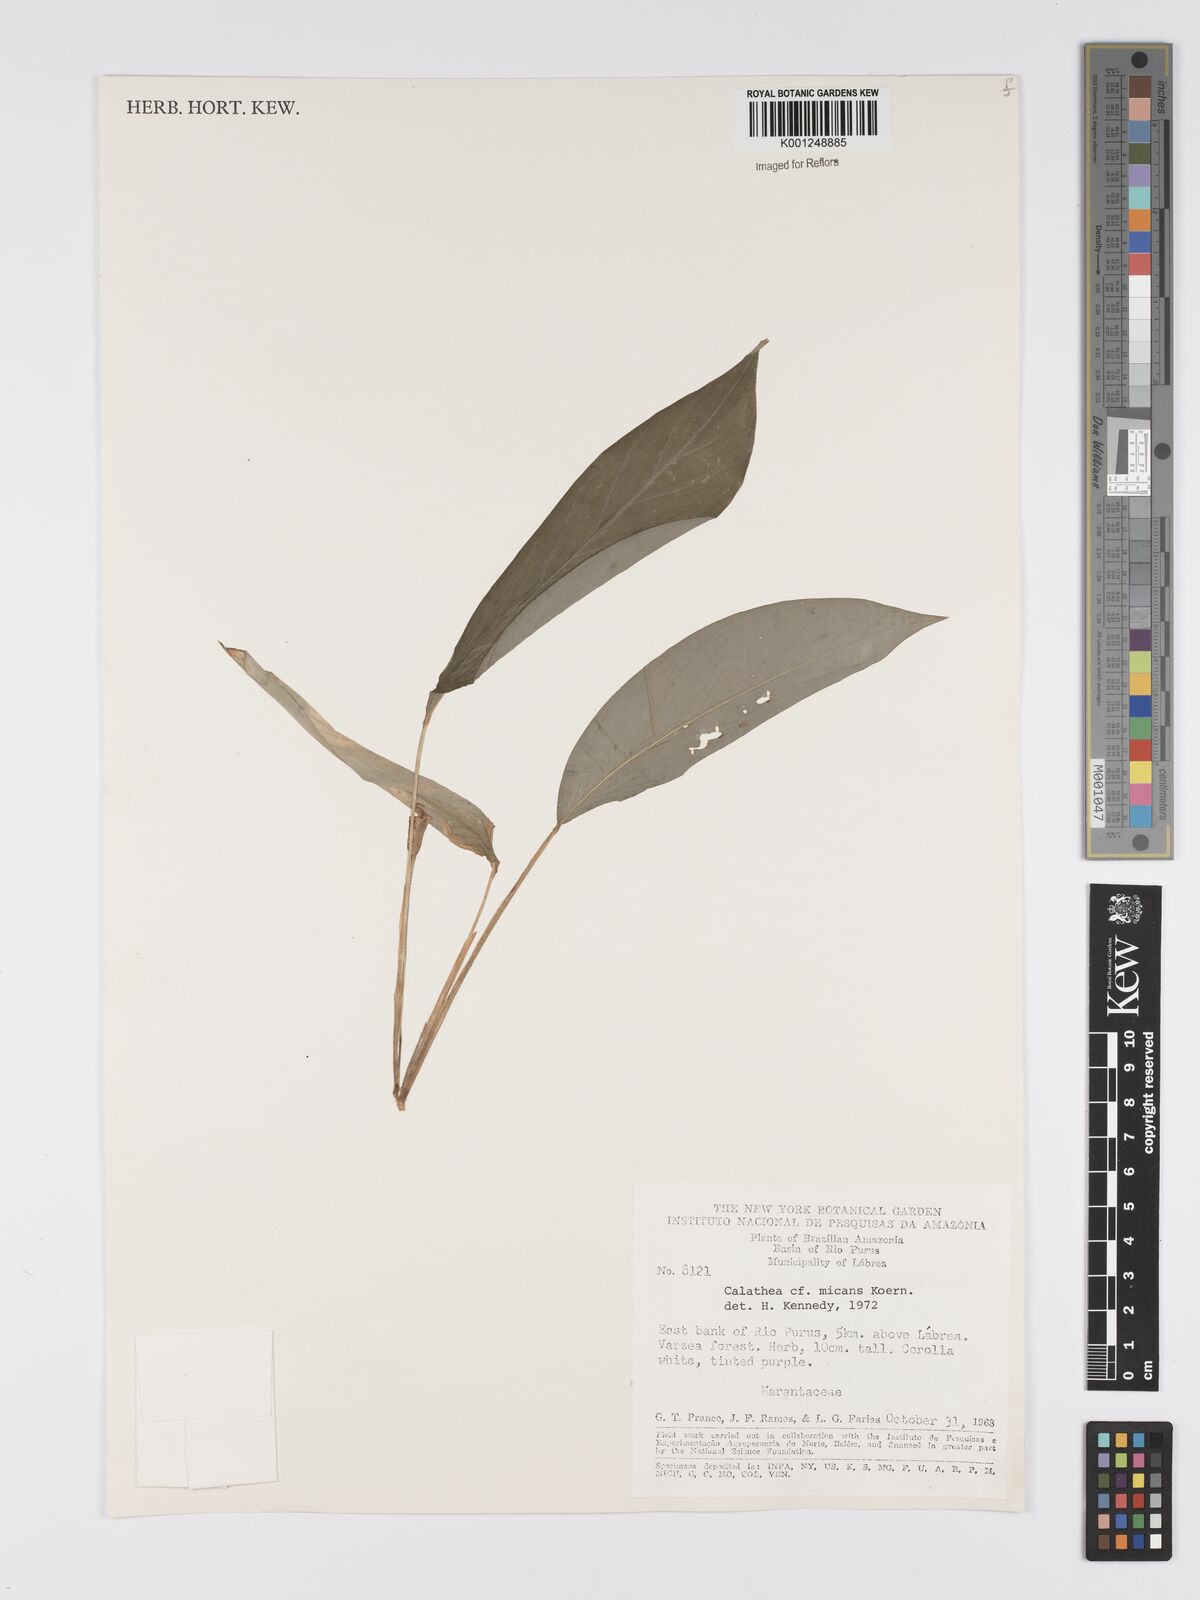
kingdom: Plantae
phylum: Tracheophyta
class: Liliopsida
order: Zingiberales
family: Marantaceae
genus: Goeppertia
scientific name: Goeppertia micans
